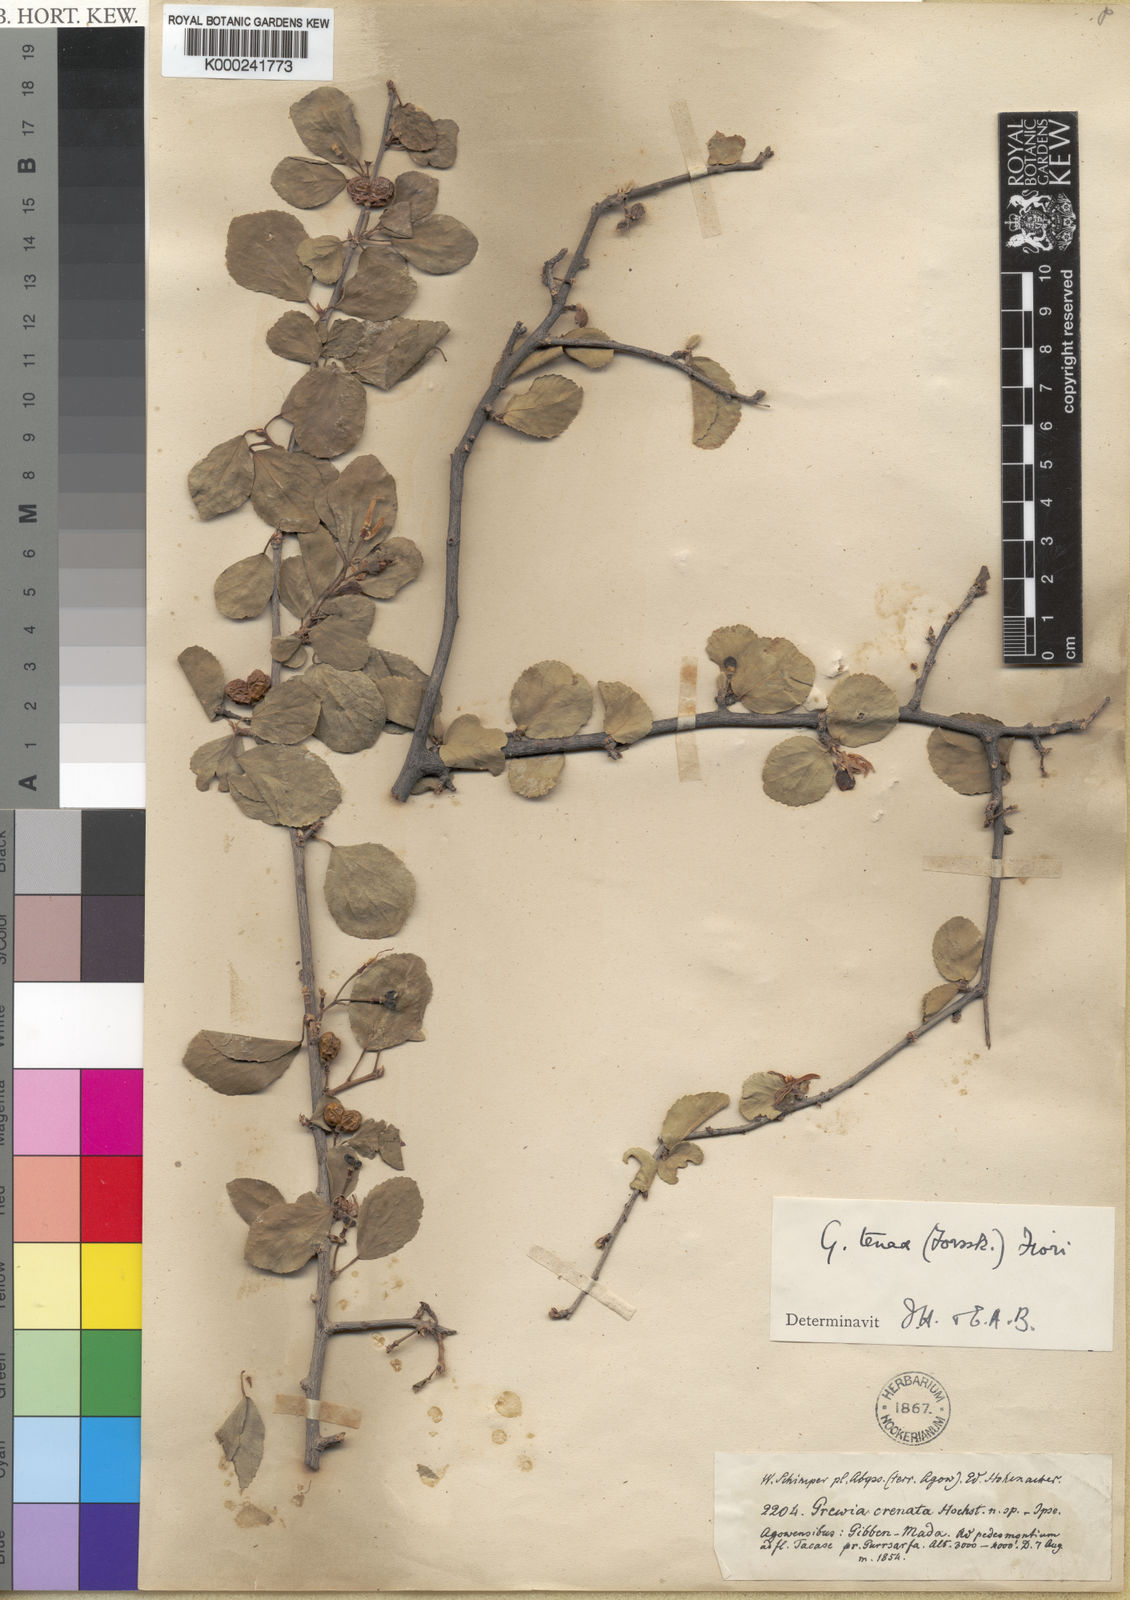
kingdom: Plantae
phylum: Tracheophyta
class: Magnoliopsida
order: Malvales
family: Malvaceae
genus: Grewia
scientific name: Grewia tenax
